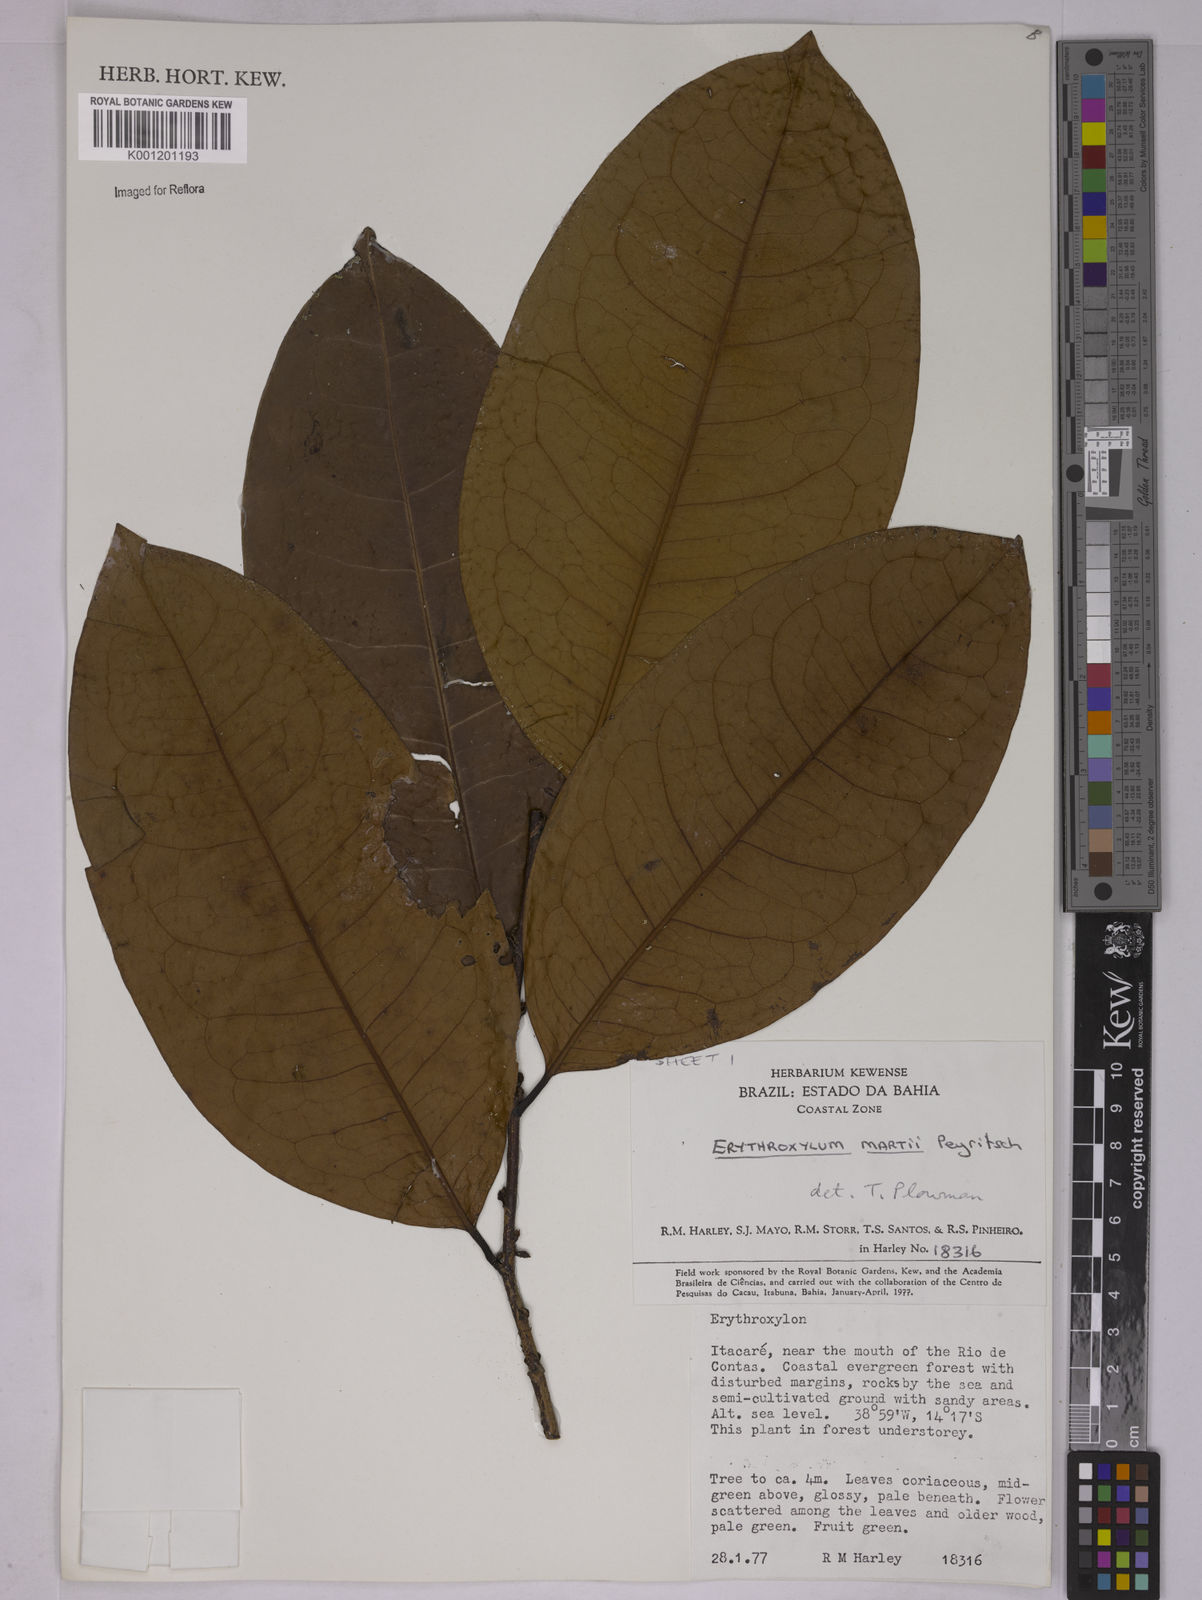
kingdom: Plantae
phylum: Tracheophyta
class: Magnoliopsida
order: Malpighiales
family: Erythroxylaceae
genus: Erythroxylum
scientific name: Erythroxylum martii
